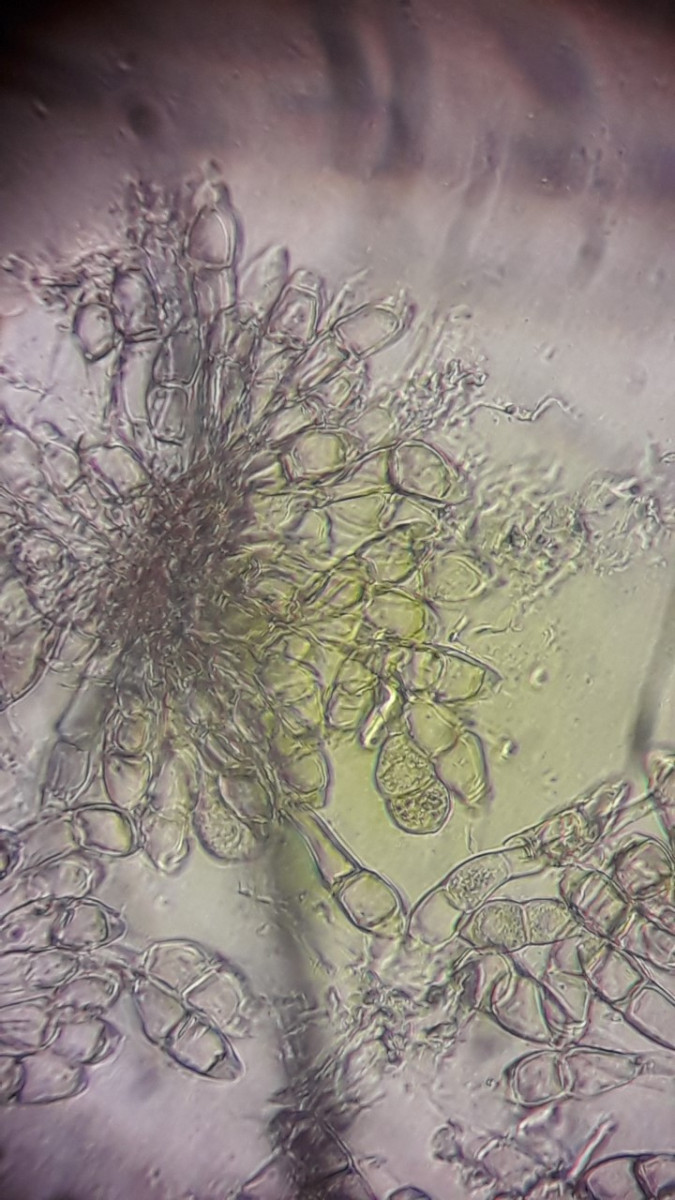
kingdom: Fungi
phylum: Basidiomycota
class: Pucciniomycetes
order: Pucciniales
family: Pucciniaceae
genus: Puccinia
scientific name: Puccinia albulensis
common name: Alpine veronica rust
